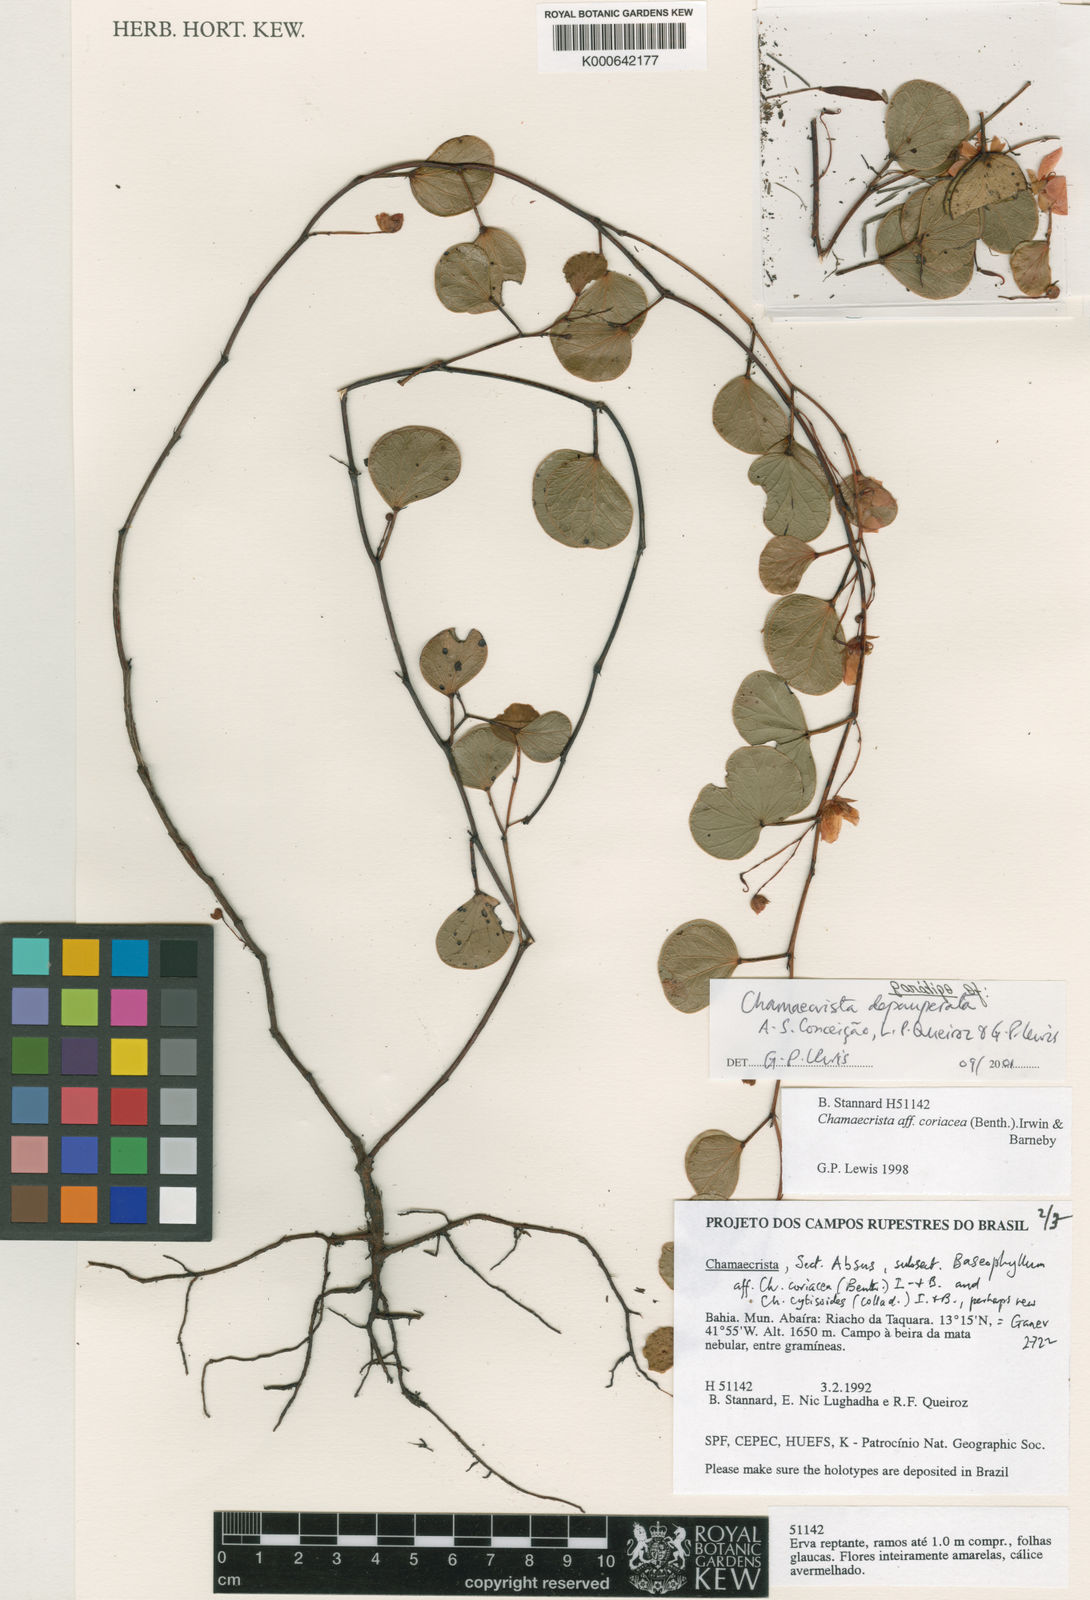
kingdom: Plantae
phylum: Tracheophyta
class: Magnoliopsida
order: Fabales
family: Fabaceae
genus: Chamaecrista
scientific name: Chamaecrista depauperata
